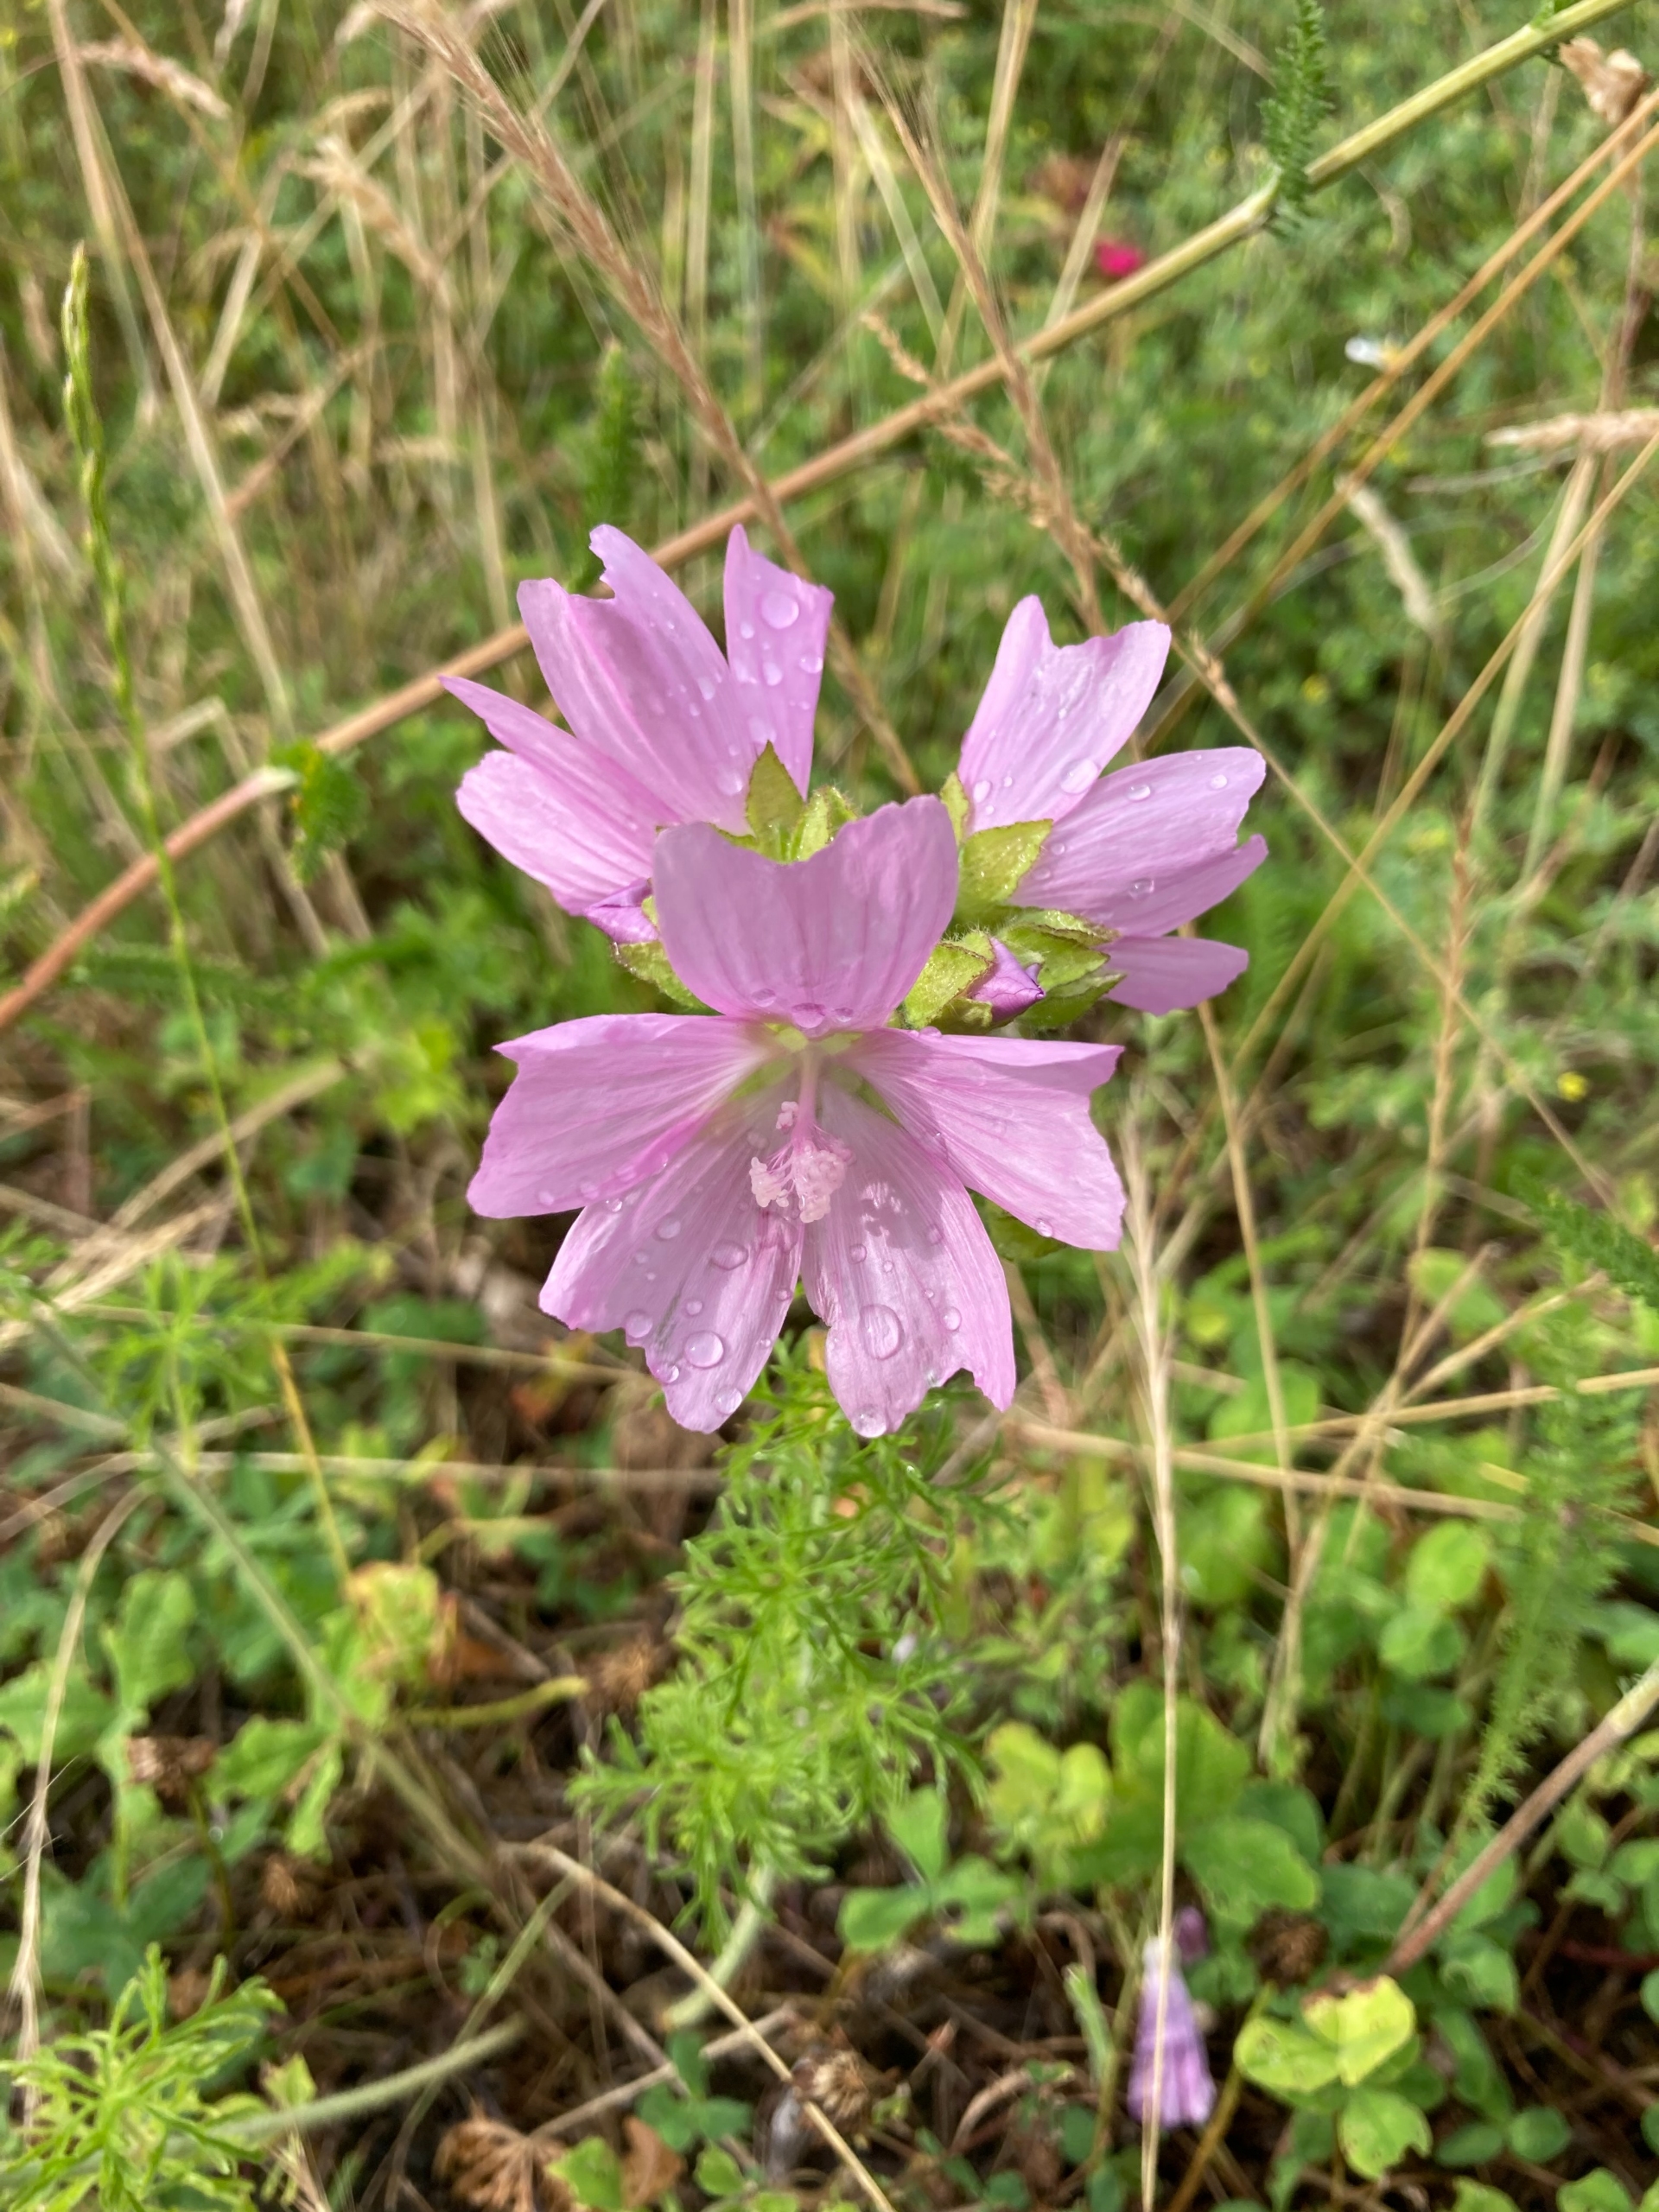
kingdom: Plantae
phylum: Tracheophyta
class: Magnoliopsida
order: Malvales
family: Malvaceae
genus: Malva
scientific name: Malva moschata
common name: Moskus-katost
